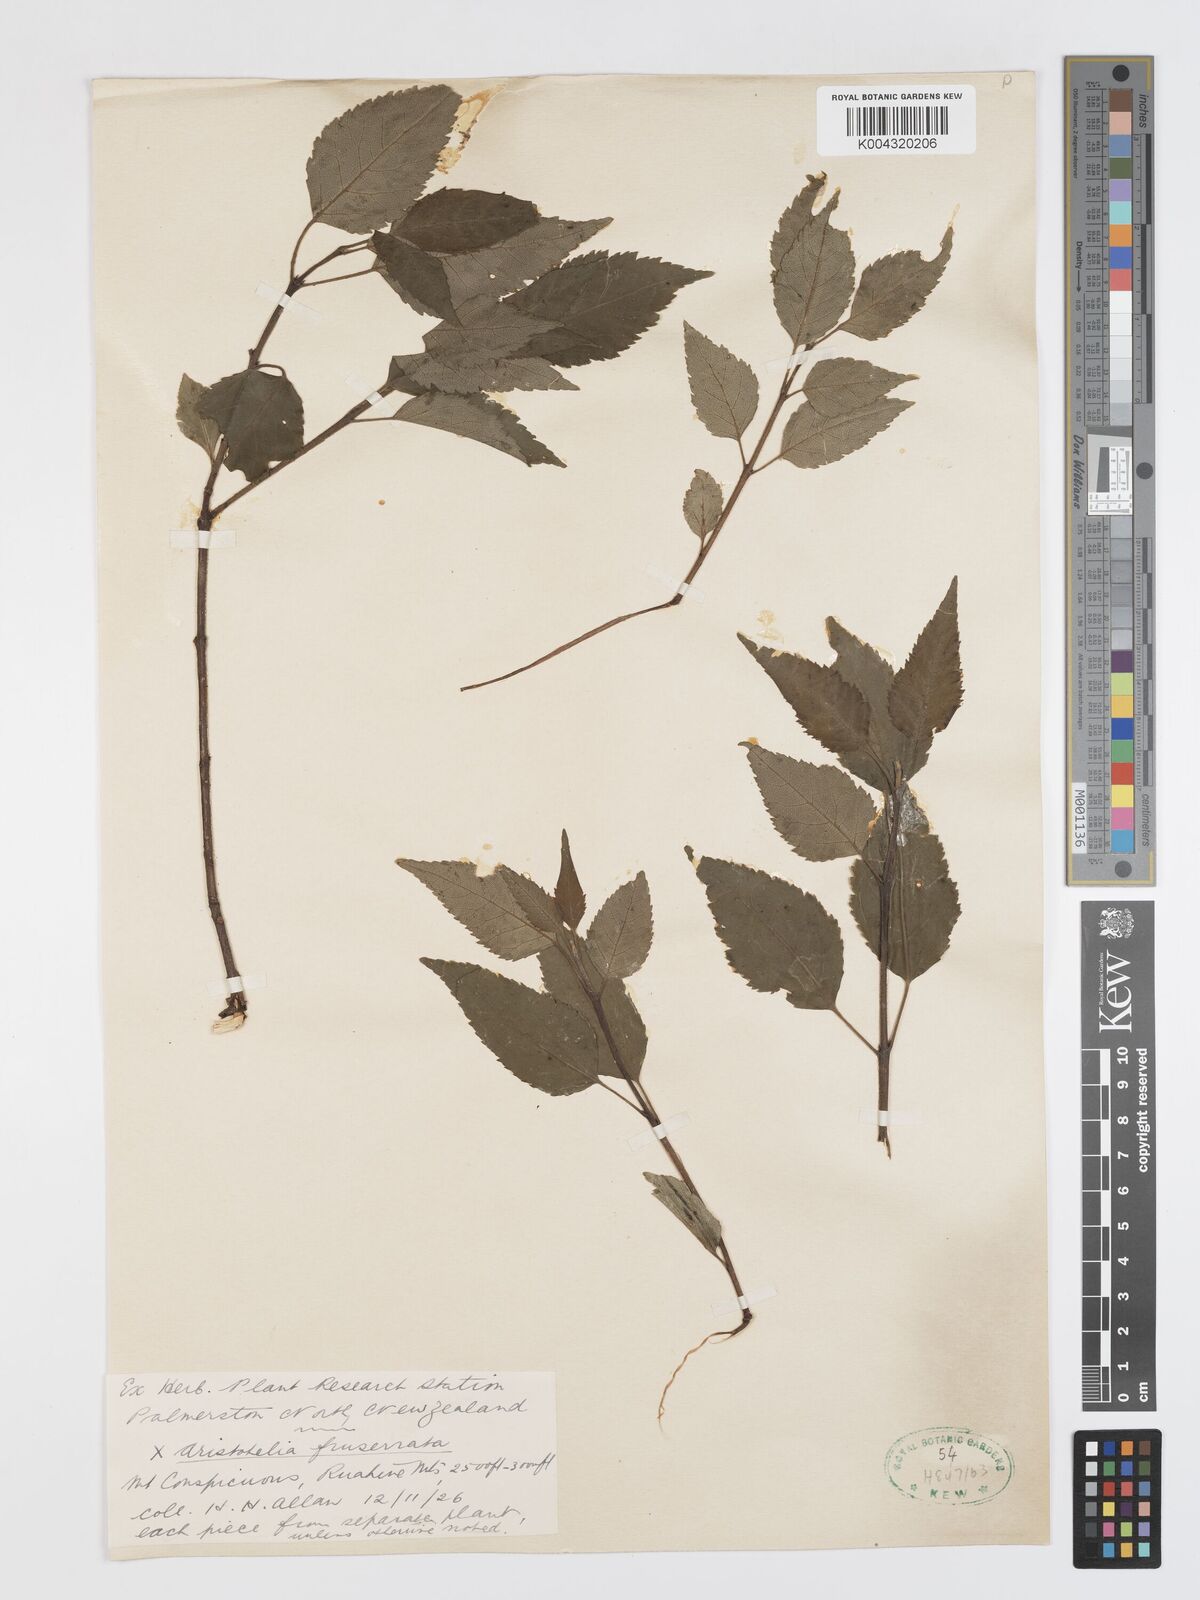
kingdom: Plantae
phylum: Tracheophyta
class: Magnoliopsida
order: Oxalidales
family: Elaeocarpaceae
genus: Aristotelia
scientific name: Aristotelia fruticosa
